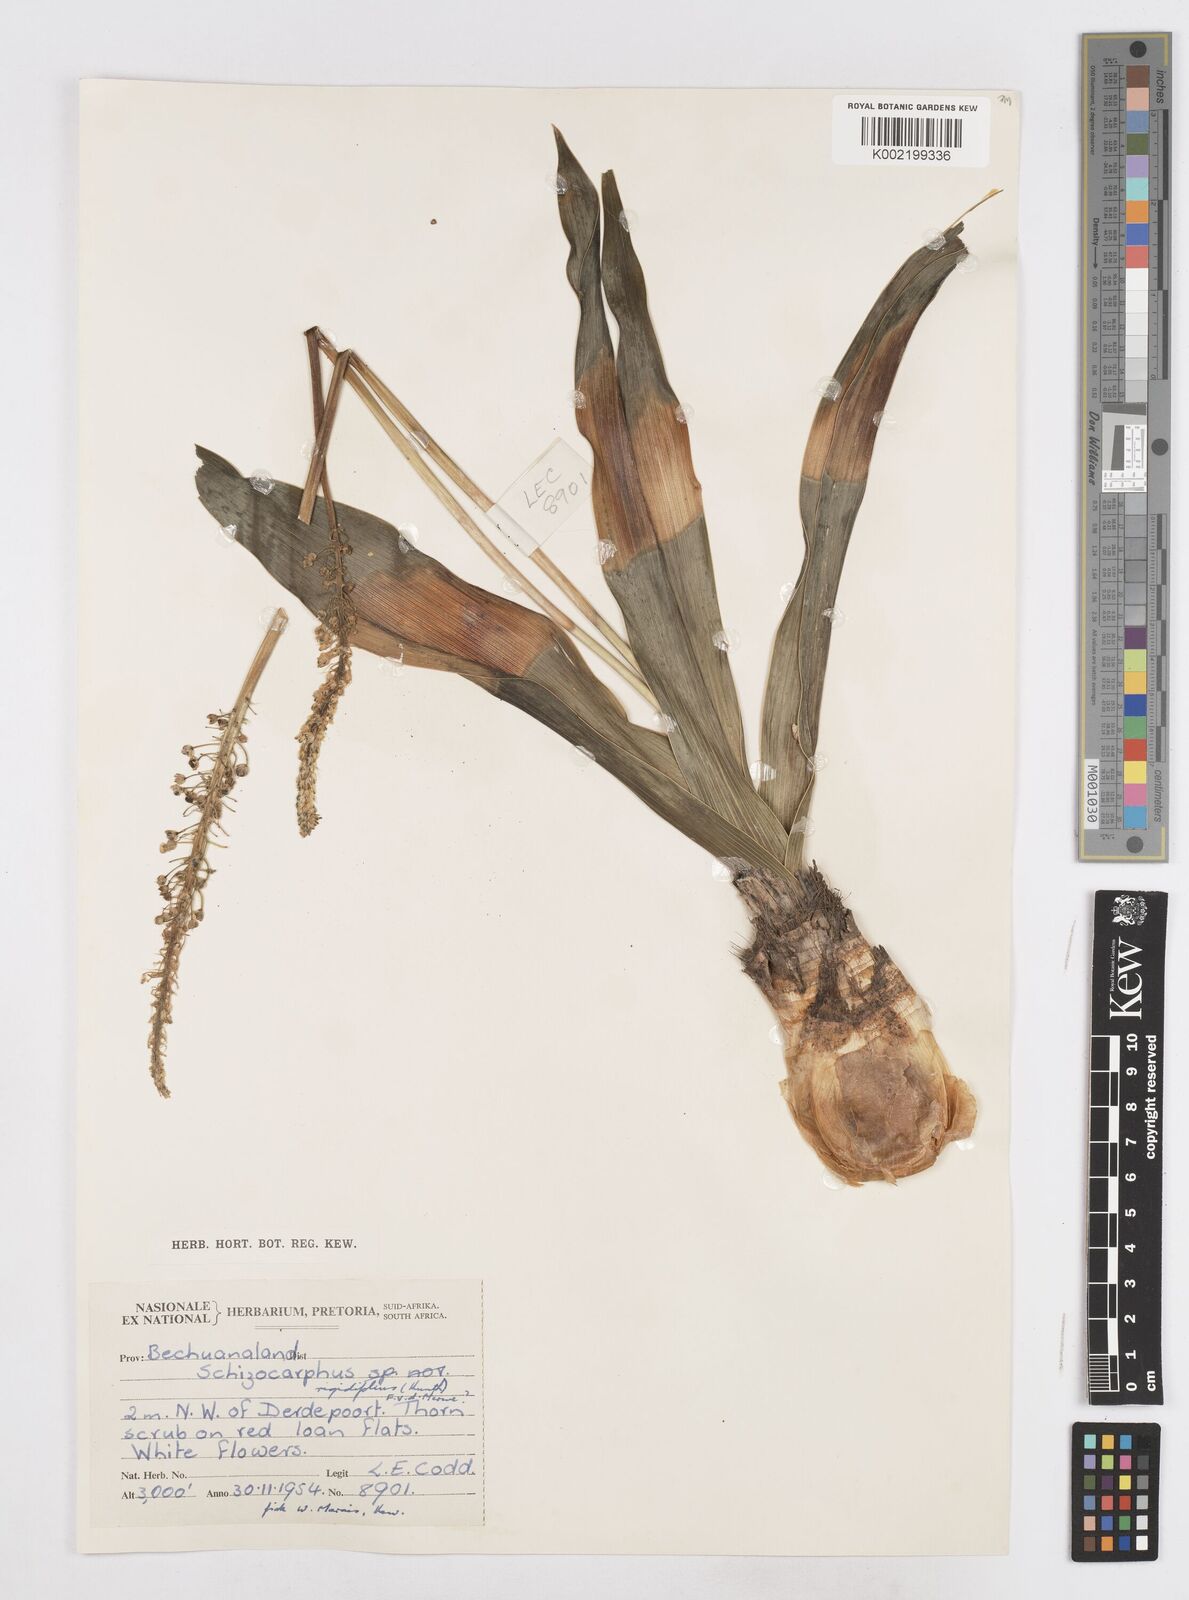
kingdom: Plantae
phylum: Tracheophyta
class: Liliopsida
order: Asparagales
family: Asparagaceae
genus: Schizocarphus
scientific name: Schizocarphus nervosus
